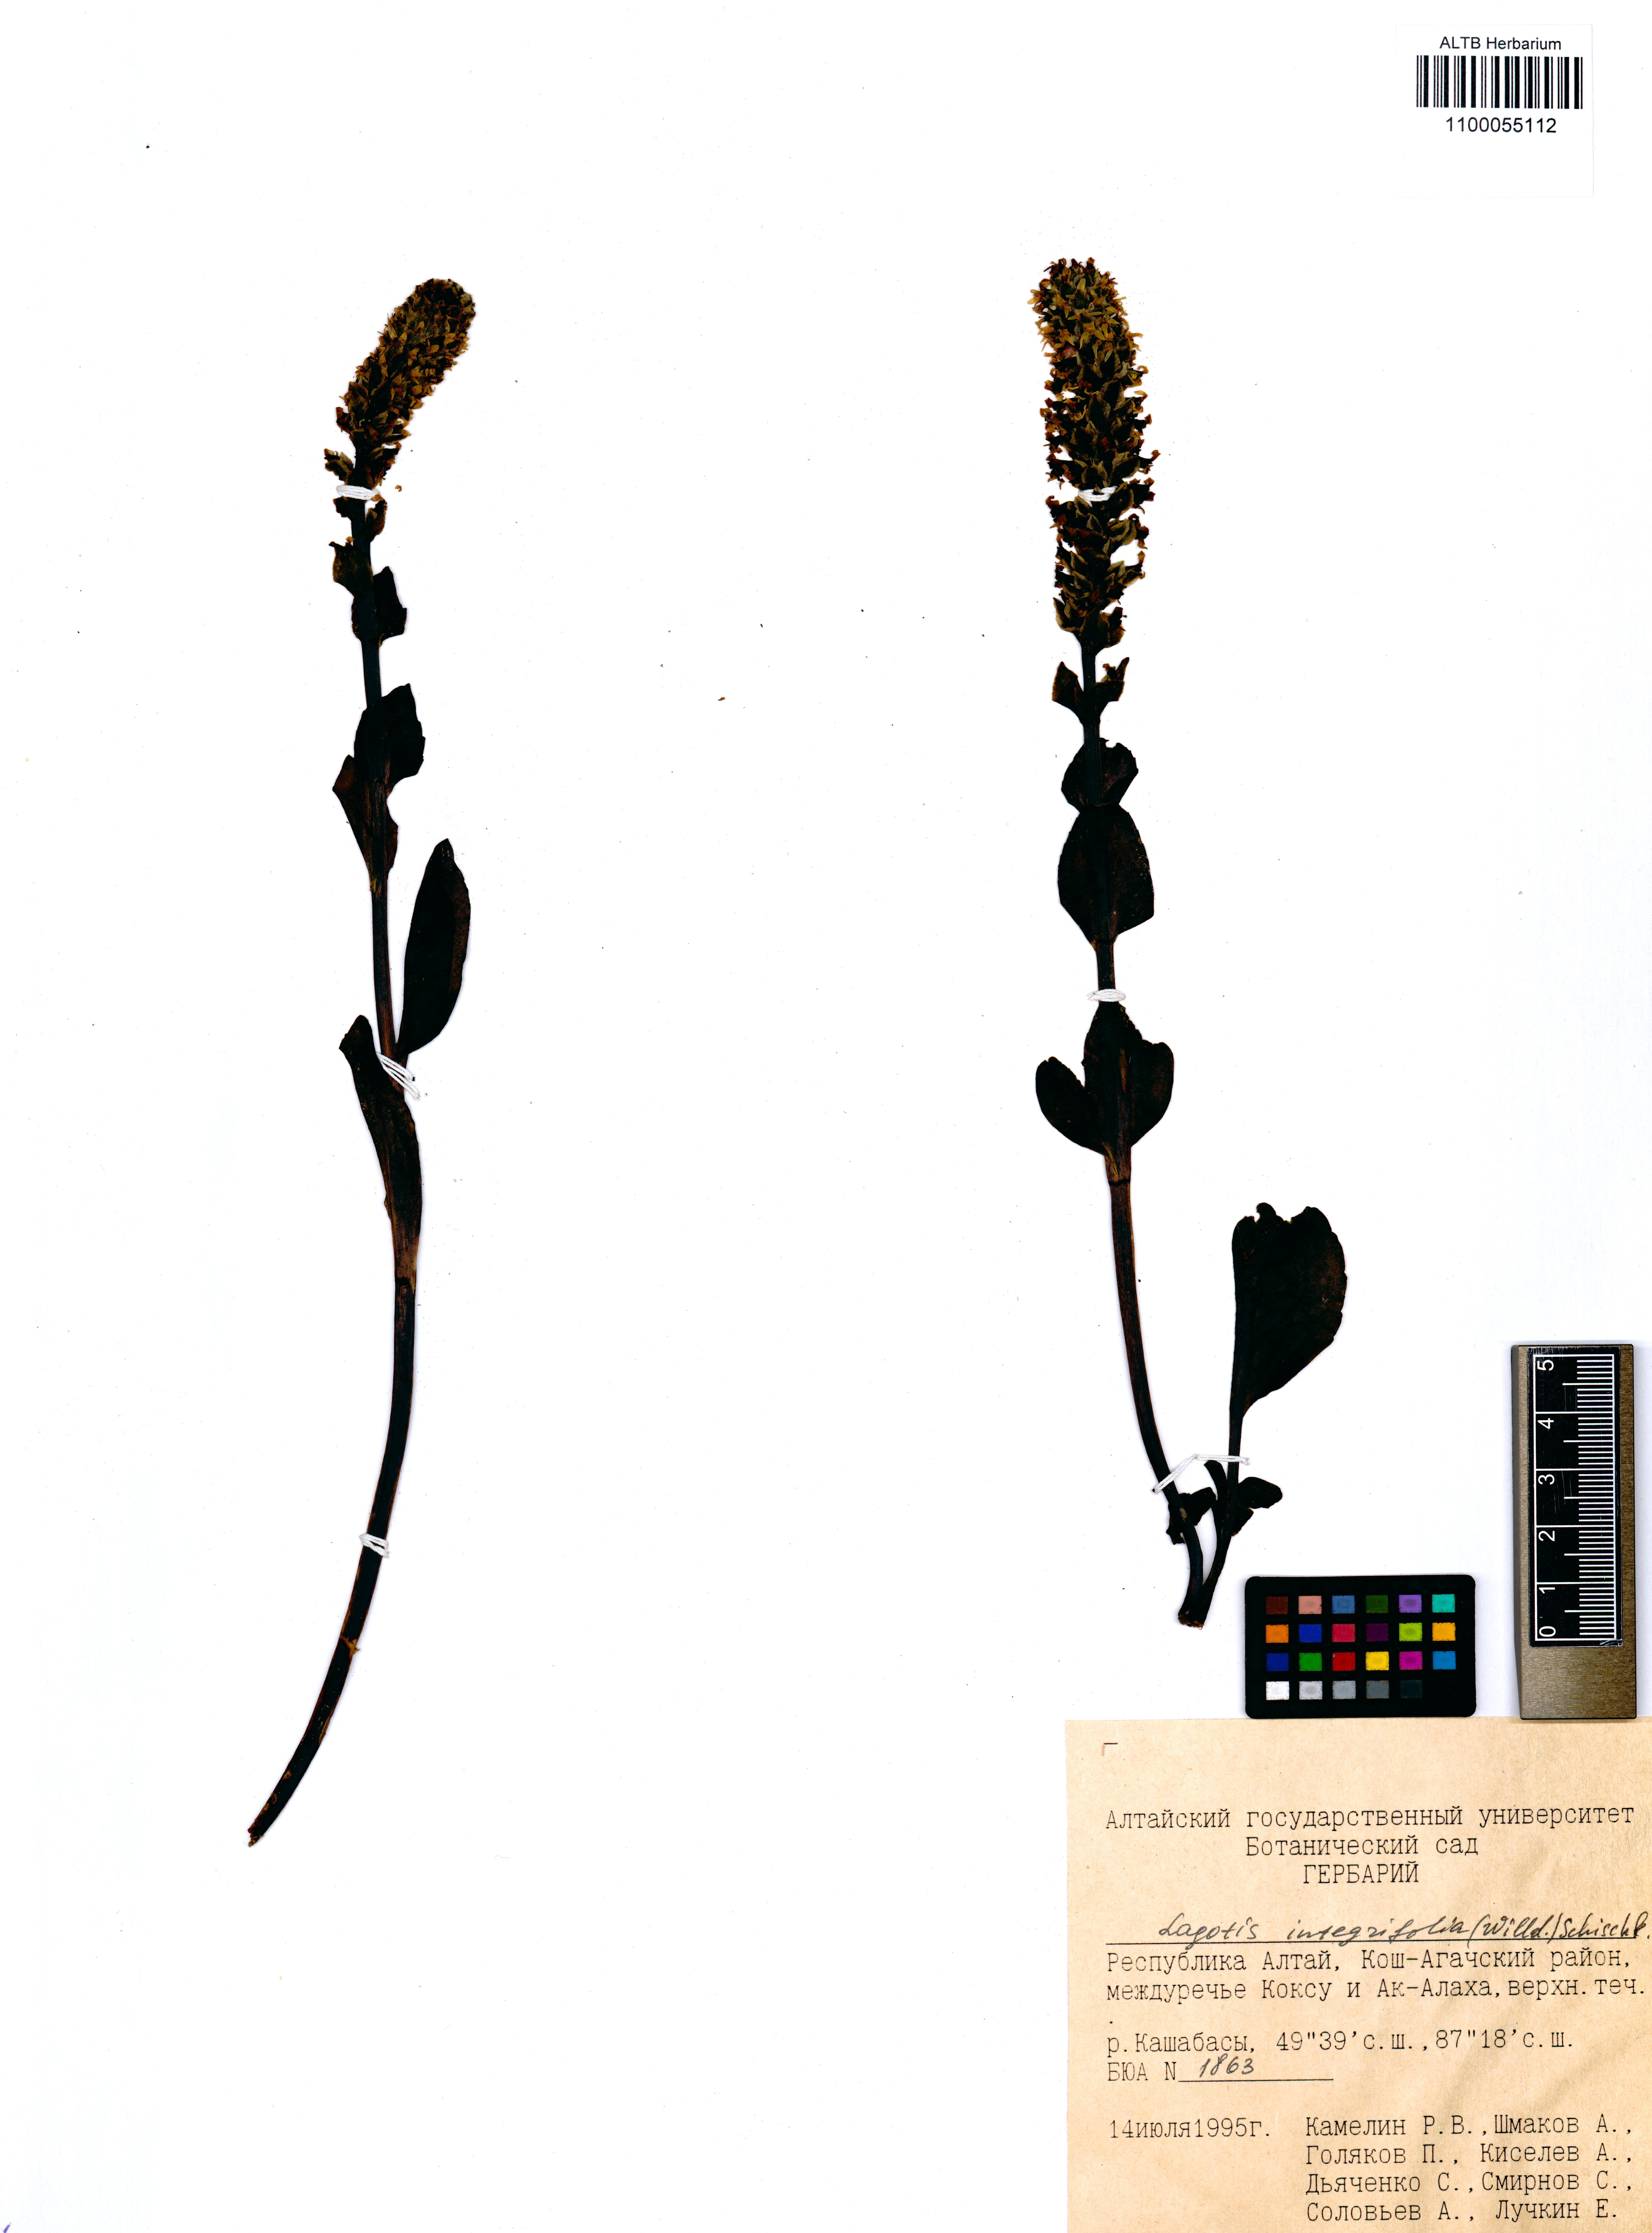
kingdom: Plantae
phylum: Tracheophyta
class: Magnoliopsida
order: Lamiales
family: Plantaginaceae
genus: Lagotis
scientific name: Lagotis integrifolia
